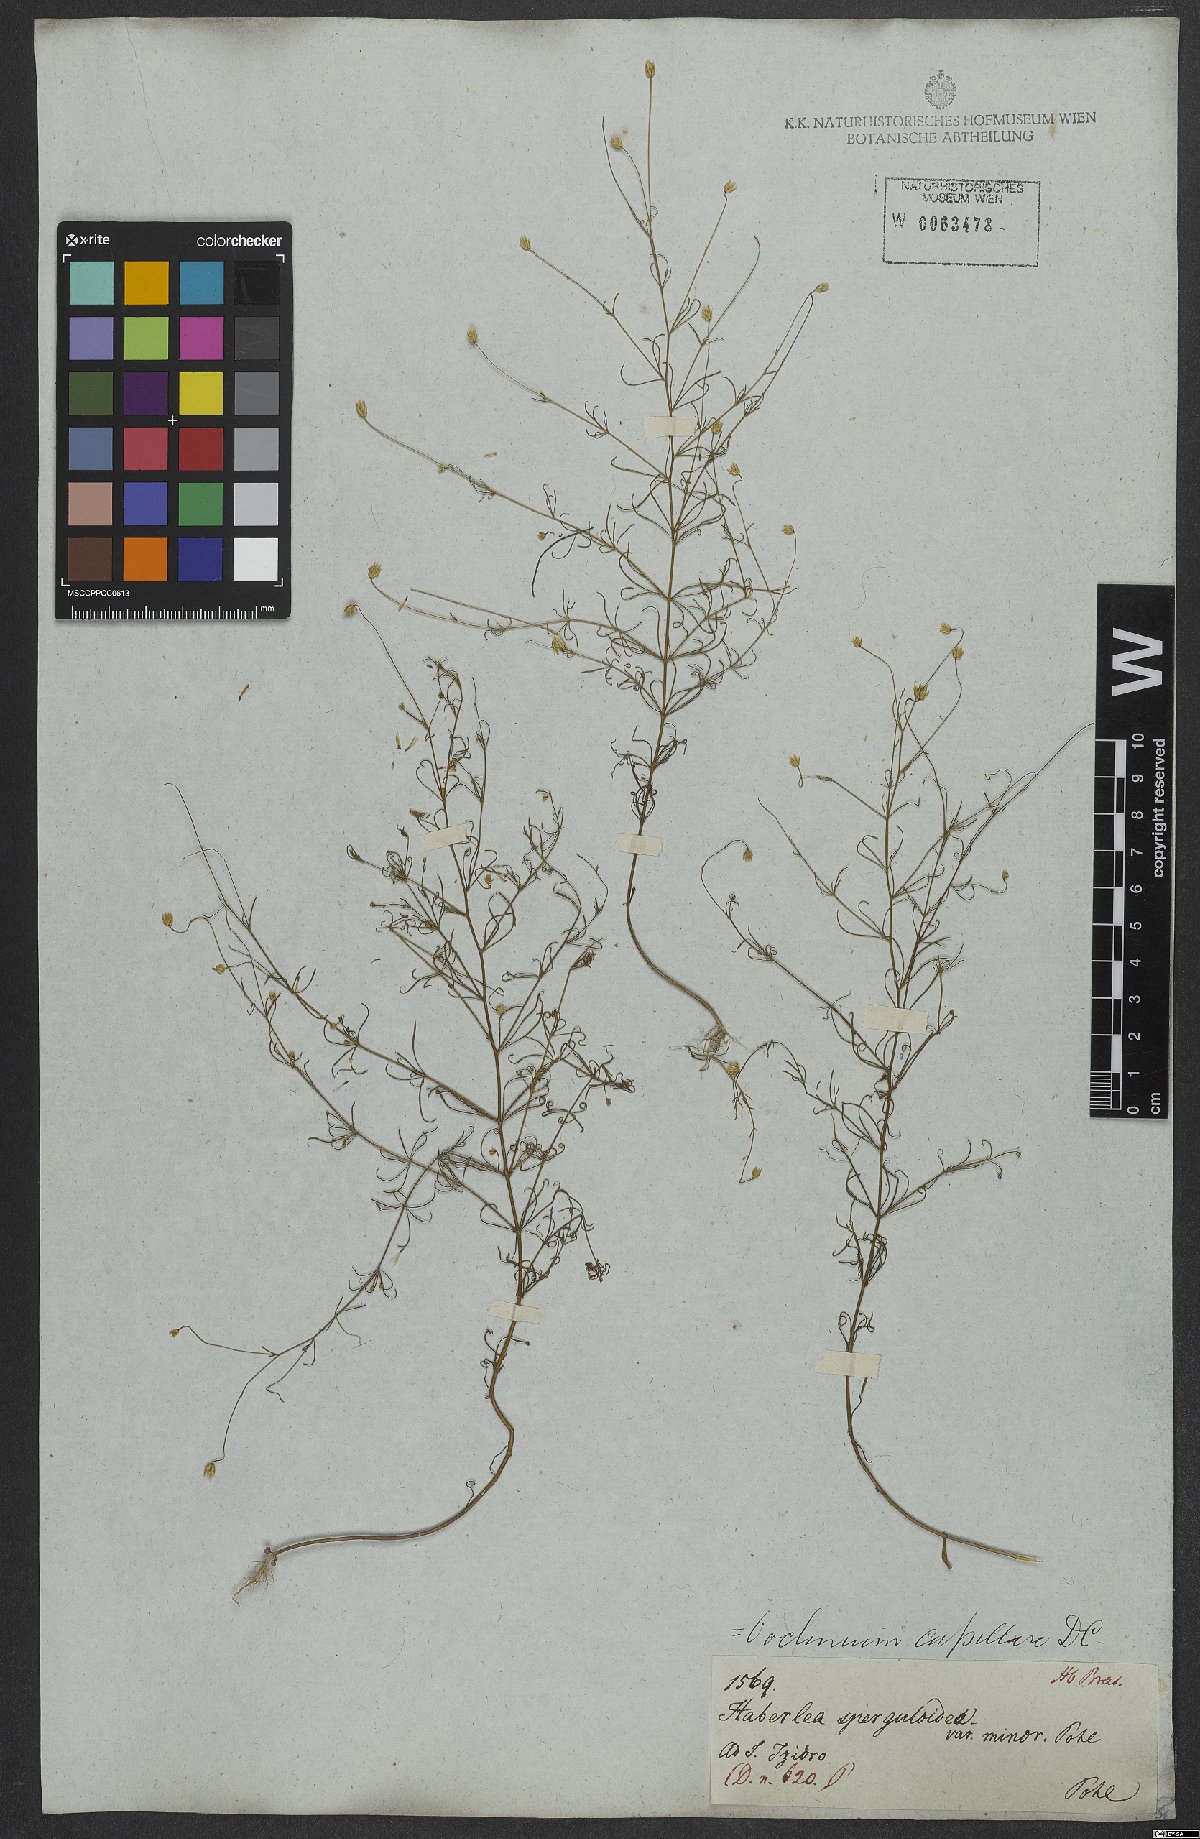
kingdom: Plantae
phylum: Tracheophyta
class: Magnoliopsida
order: Asterales
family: Asteraceae
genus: Praxelis
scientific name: Praxelis capillaris
